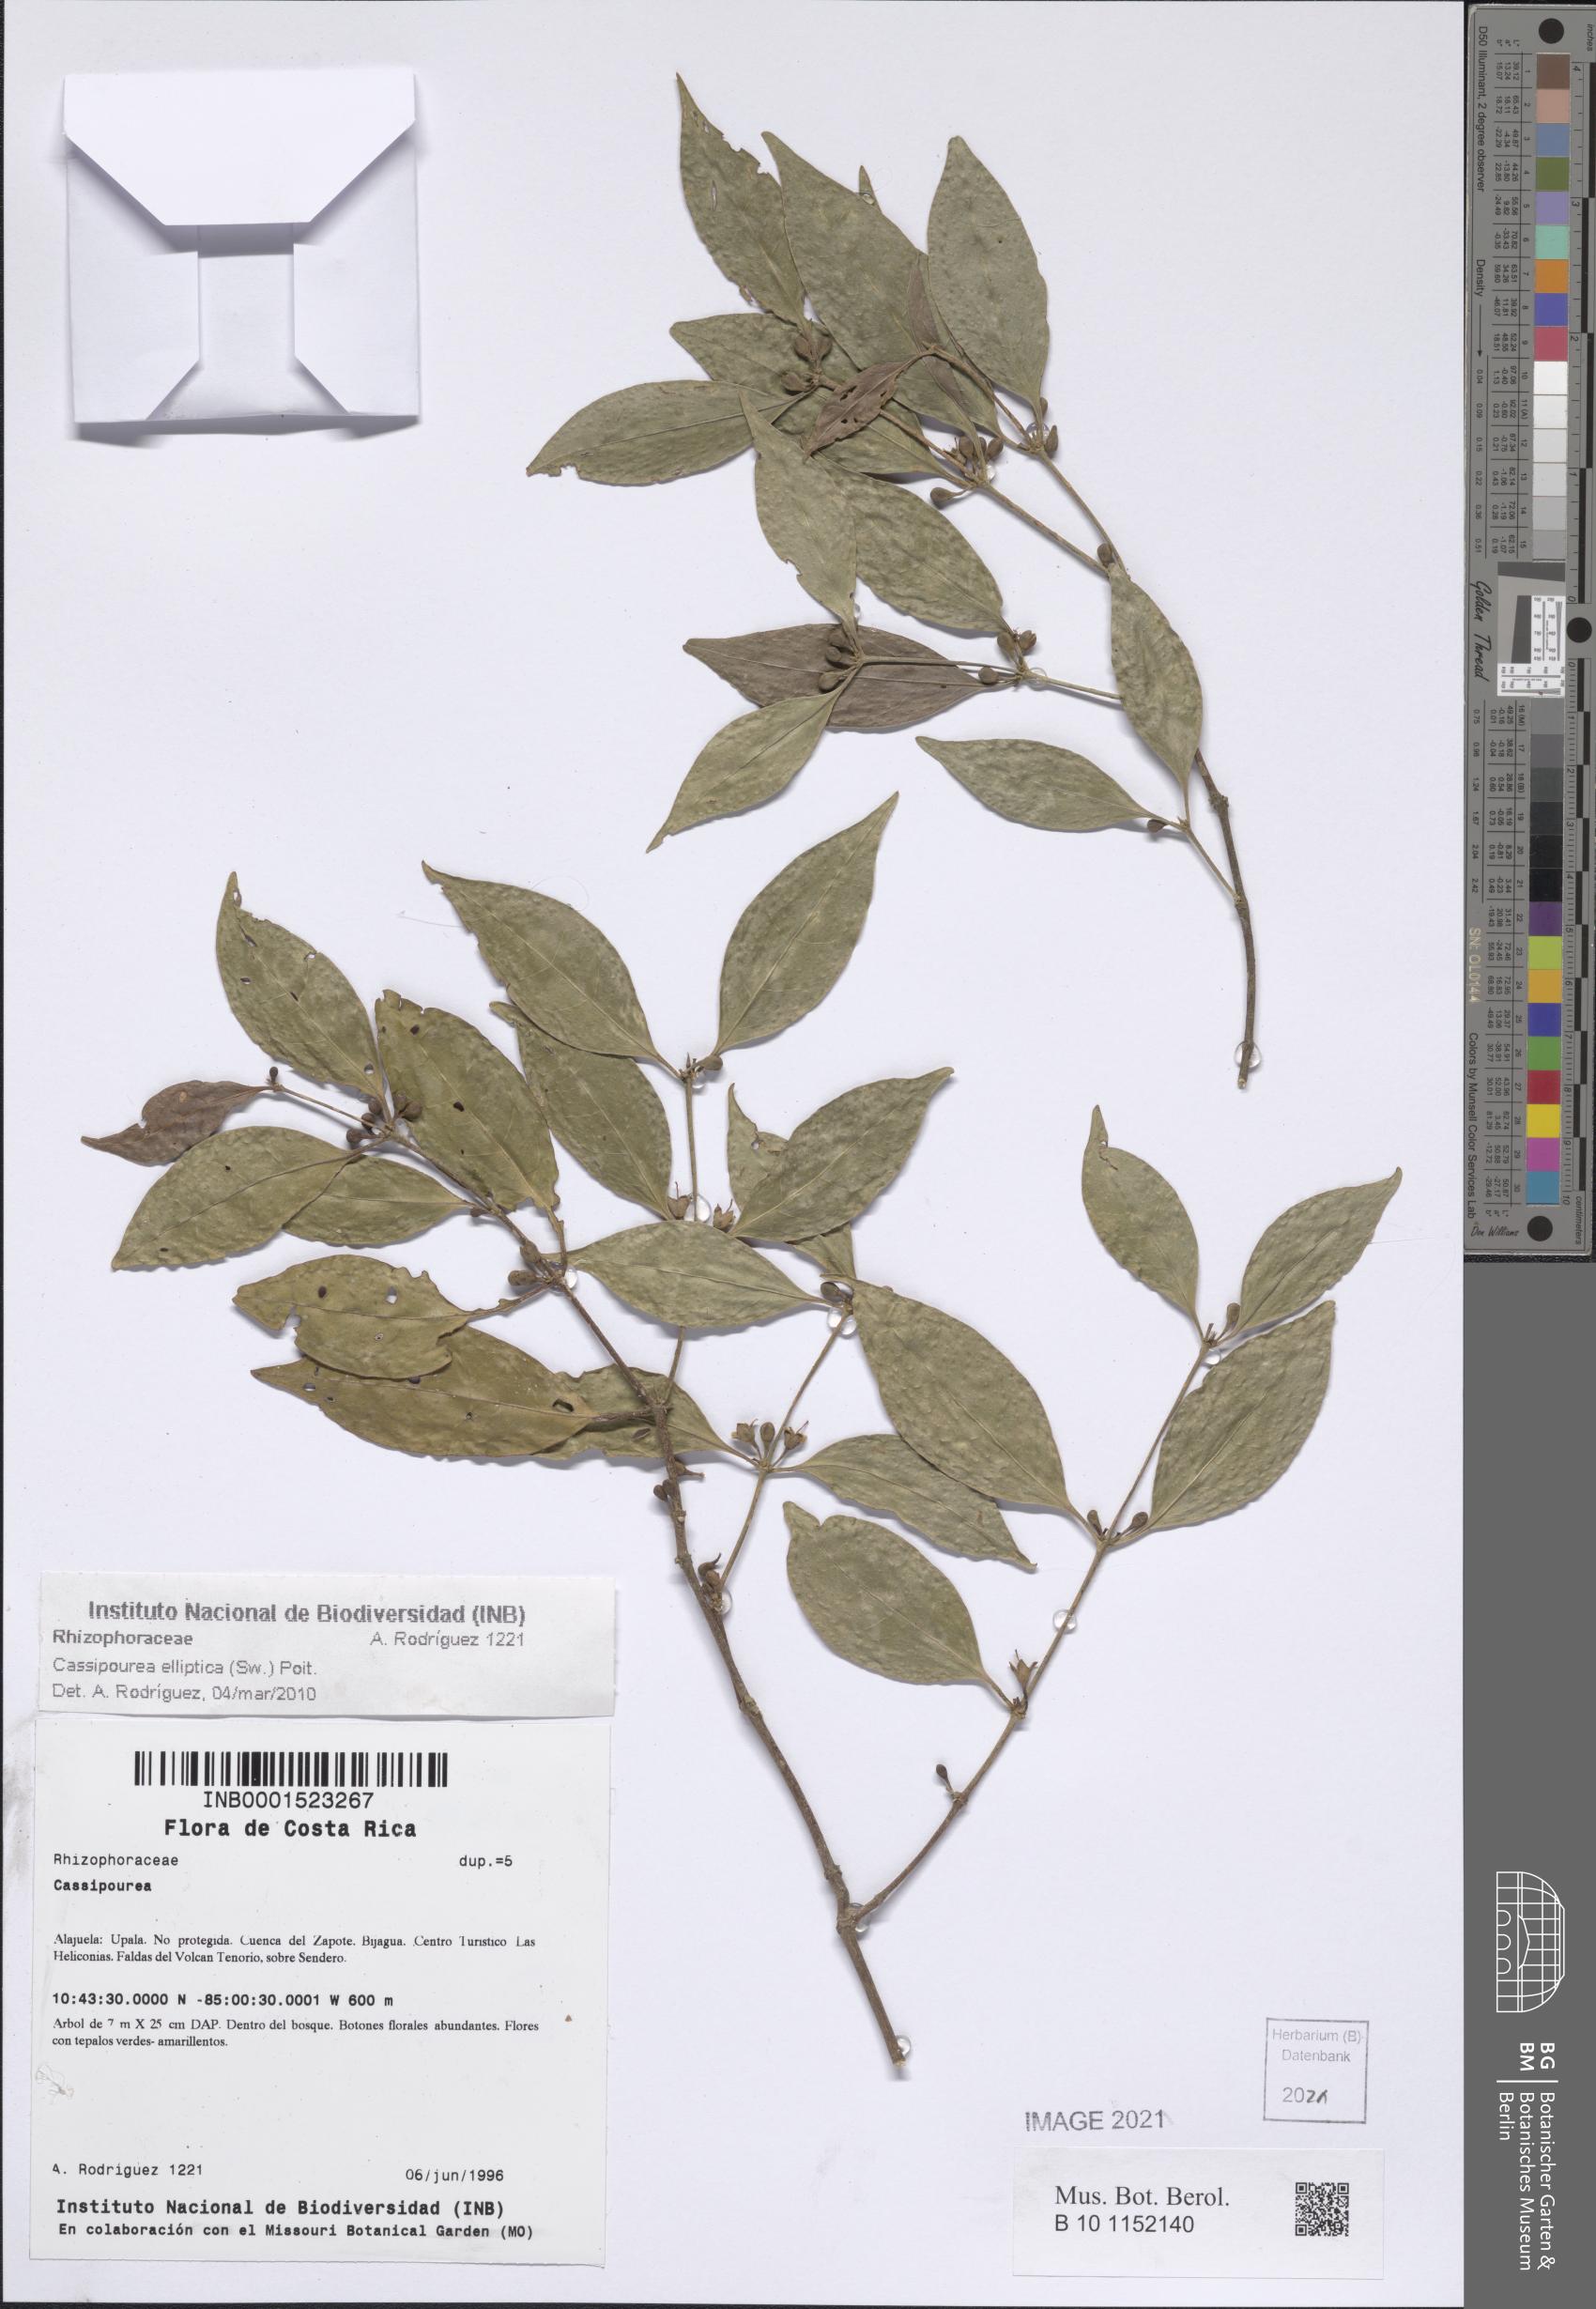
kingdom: Plantae
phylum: Tracheophyta
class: Magnoliopsida
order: Malpighiales
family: Rhizophoraceae
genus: Cassipourea
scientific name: Cassipourea elliptica
